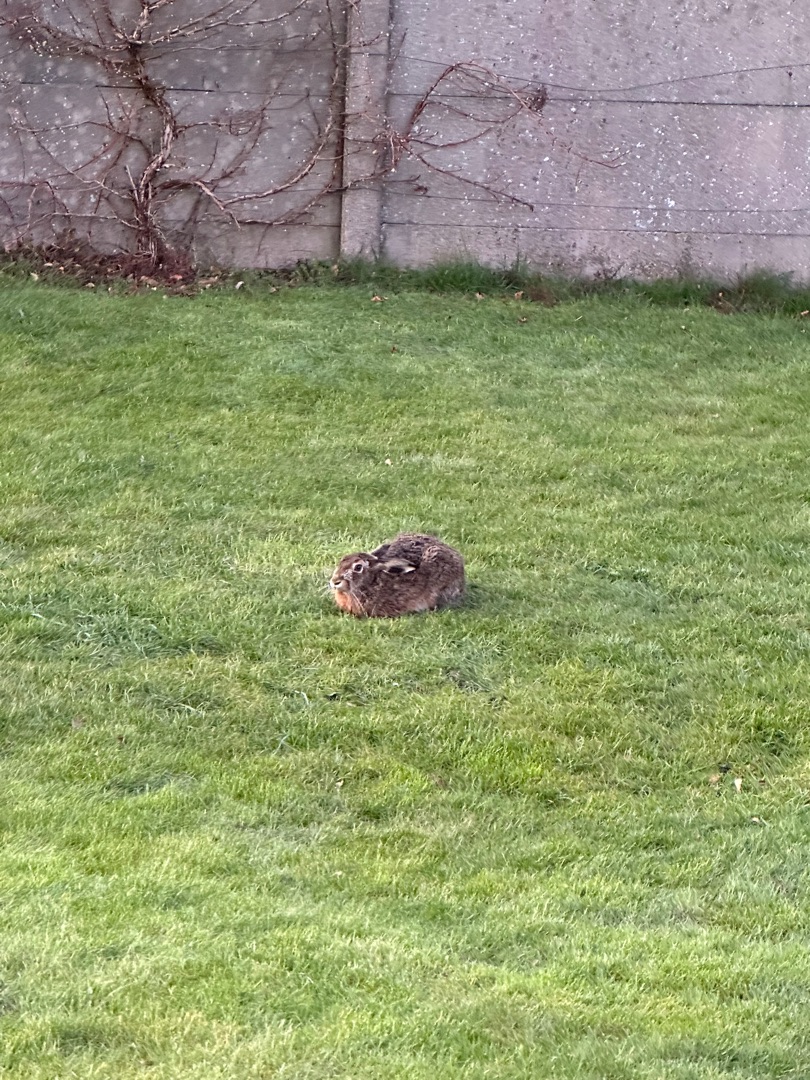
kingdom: Animalia
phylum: Chordata
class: Mammalia
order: Lagomorpha
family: Leporidae
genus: Lepus
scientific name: Lepus europaeus
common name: Hare
